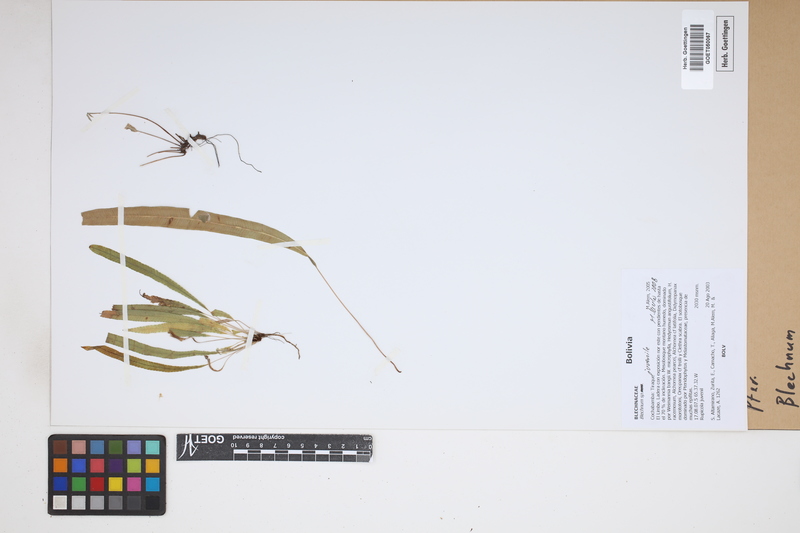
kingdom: Plantae
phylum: Tracheophyta
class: Polypodiopsida
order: Polypodiales
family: Blechnaceae
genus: Blechnum
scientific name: Blechnum
